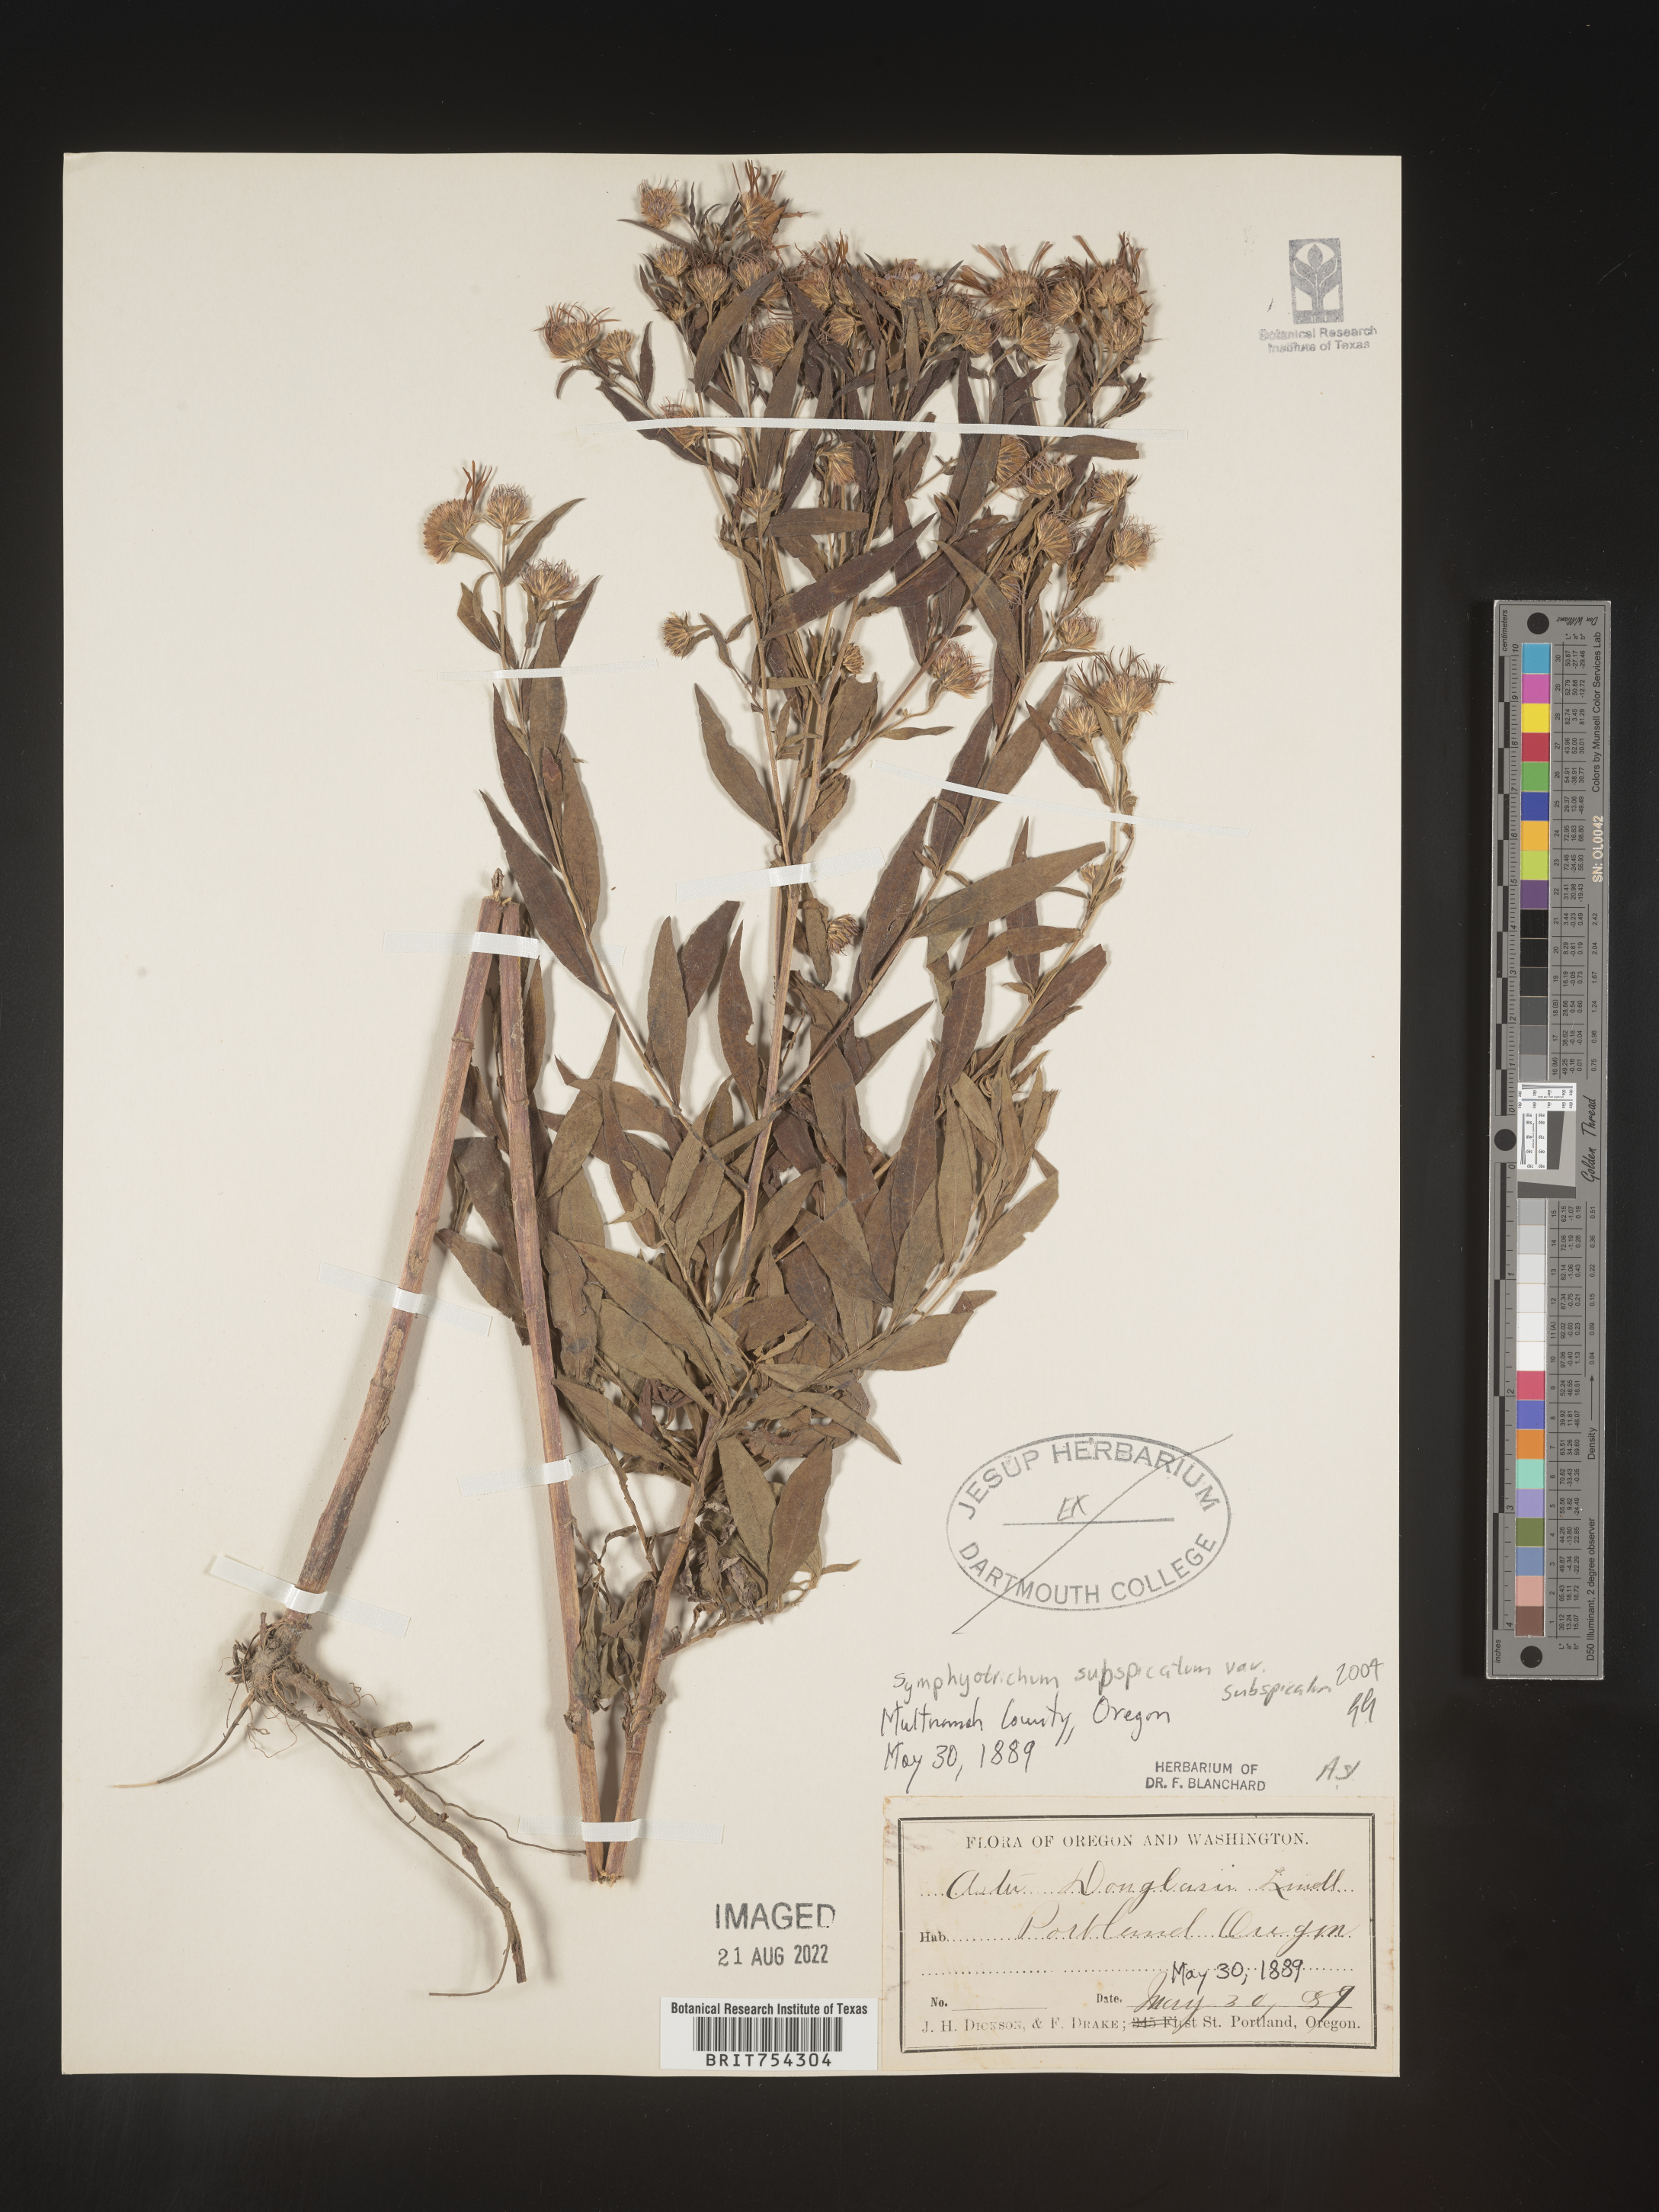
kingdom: Plantae
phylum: Tracheophyta
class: Magnoliopsida
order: Asterales
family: Asteraceae
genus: Symphyotrichum
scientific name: Symphyotrichum subspicatum
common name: Douglas' aster
